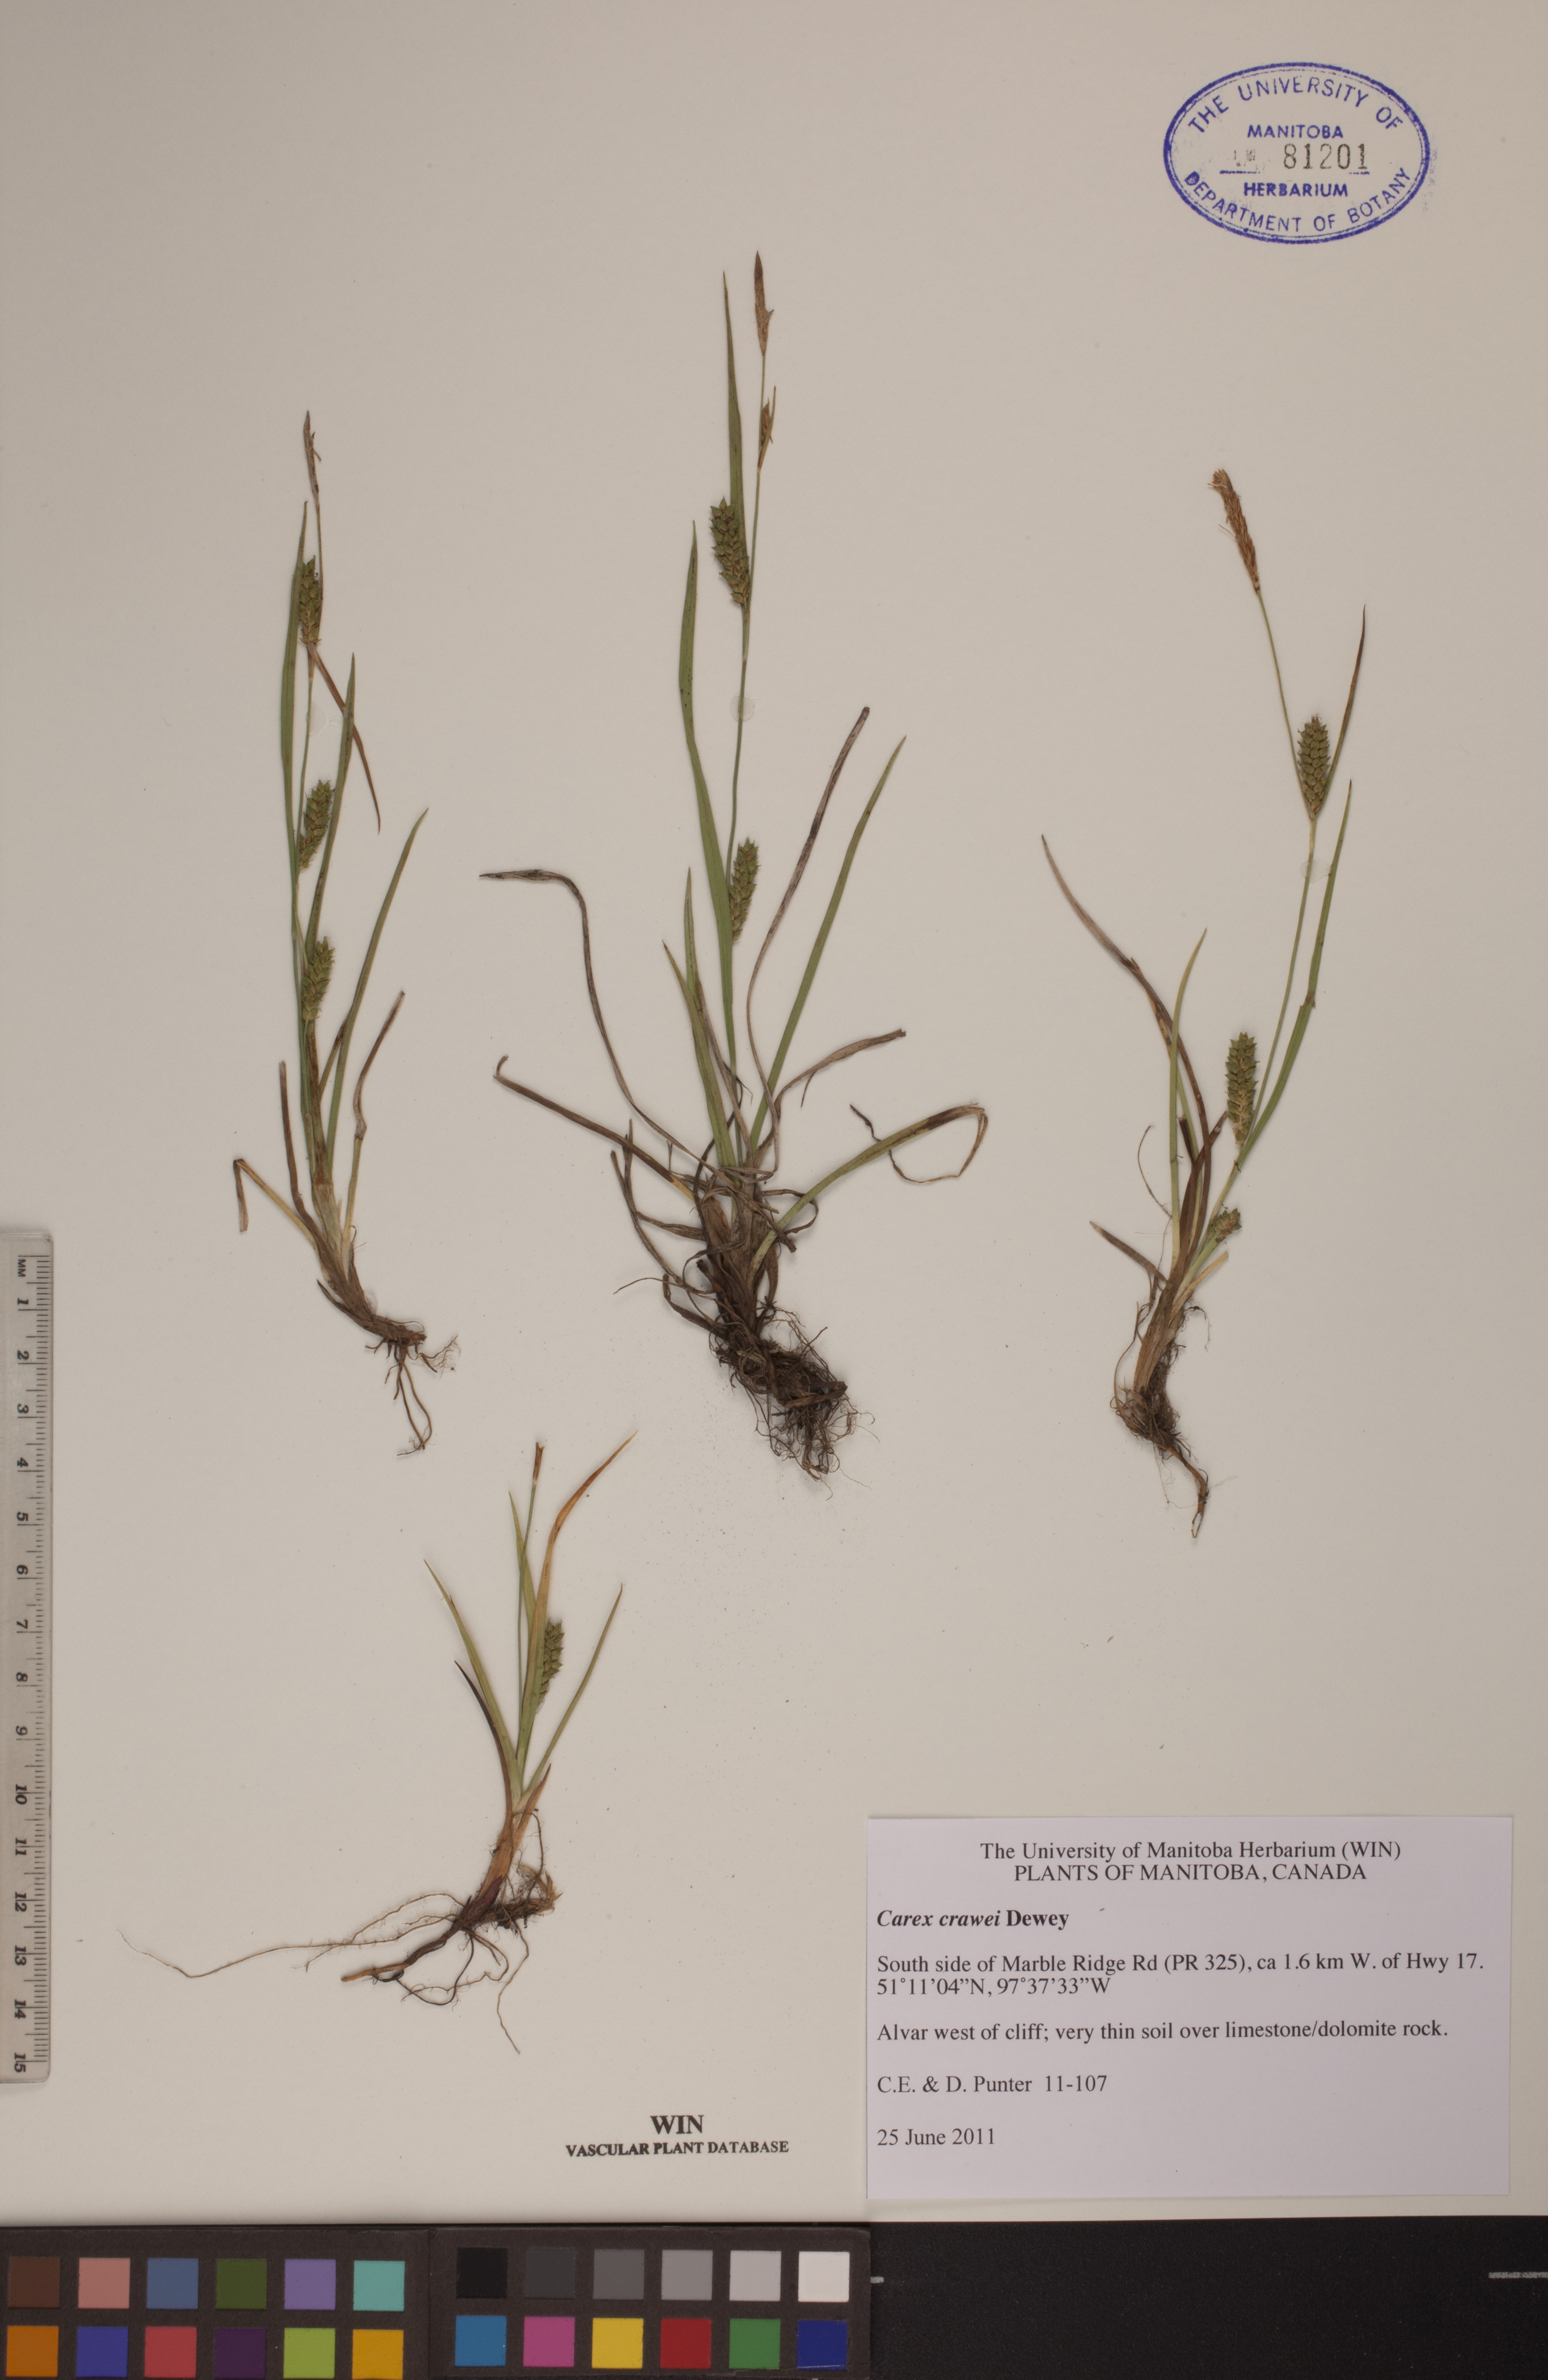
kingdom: Plantae
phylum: Tracheophyta
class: Liliopsida
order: Poales
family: Cyperaceae
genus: Carex
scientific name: Carex crawei
